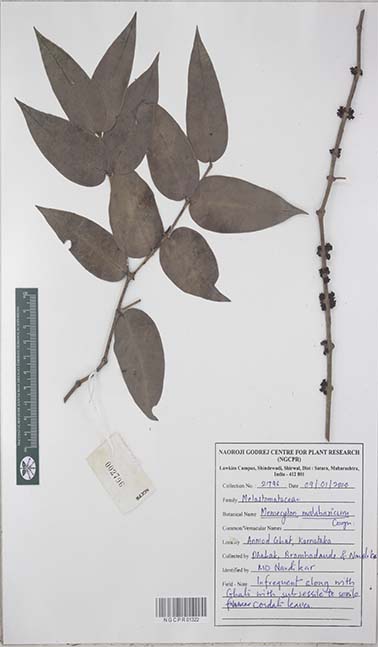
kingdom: Plantae
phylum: Tracheophyta
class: Magnoliopsida
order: Myrtales
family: Melastomataceae
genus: Memecylon
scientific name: Memecylon sessile
